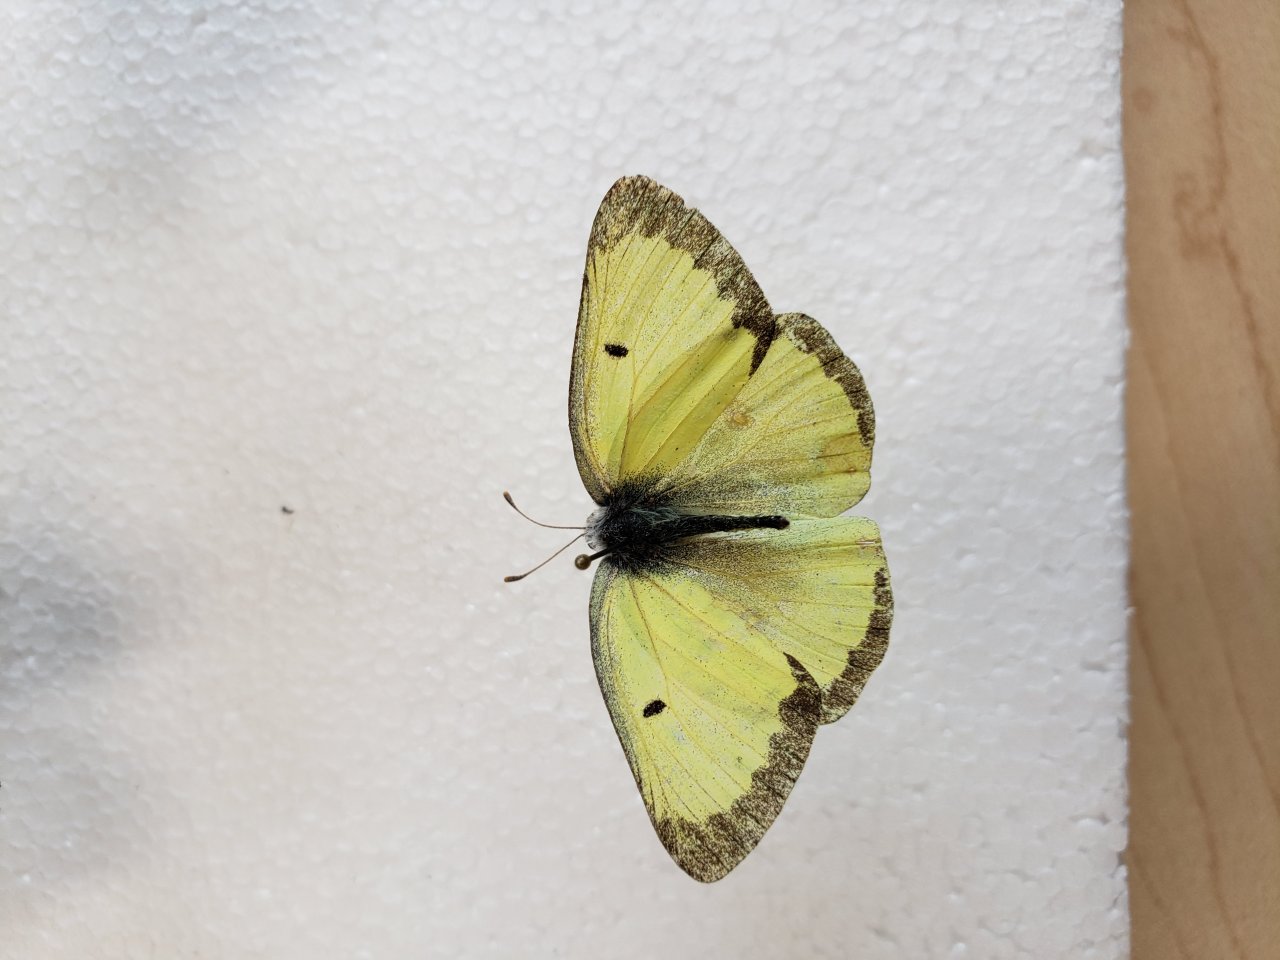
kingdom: Animalia
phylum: Arthropoda
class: Insecta
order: Lepidoptera
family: Pieridae
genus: Colias
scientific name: Colias philodice
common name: Clouded Sulphur
